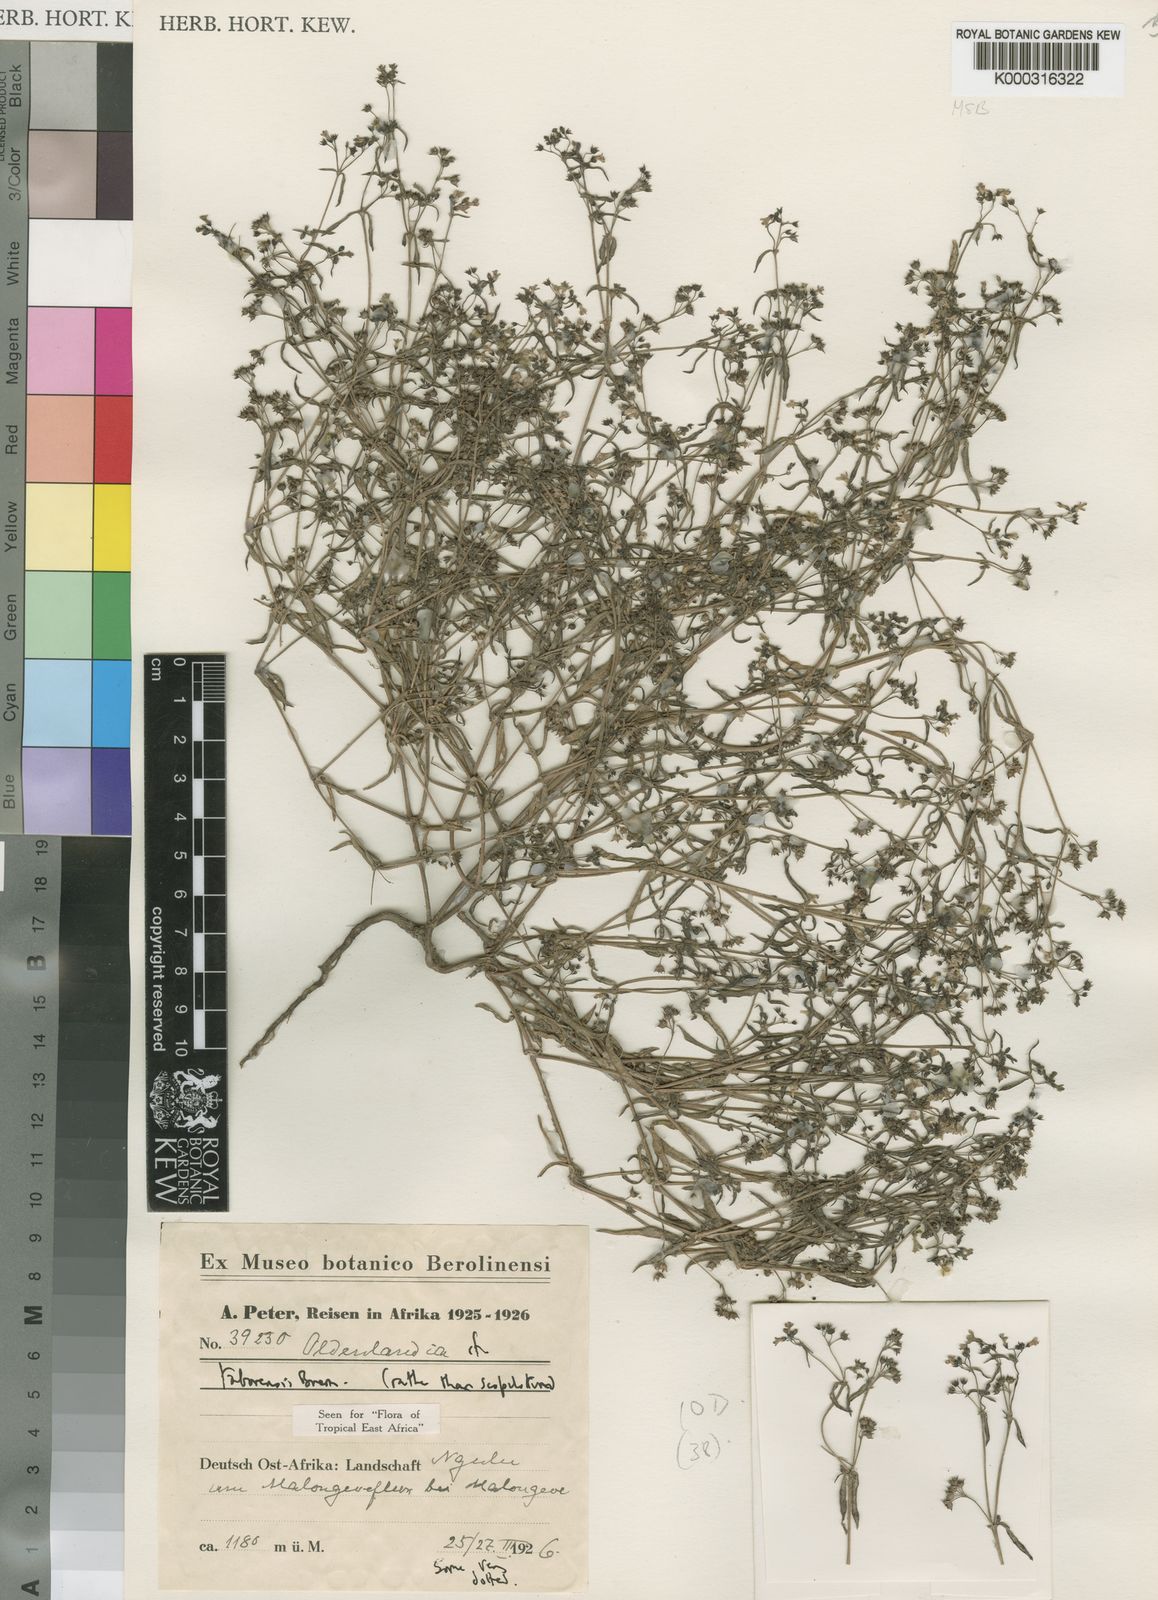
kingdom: Plantae
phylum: Tracheophyta
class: Magnoliopsida
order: Gentianales
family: Rubiaceae
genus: Oldenlandia
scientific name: Oldenlandia taborensis
